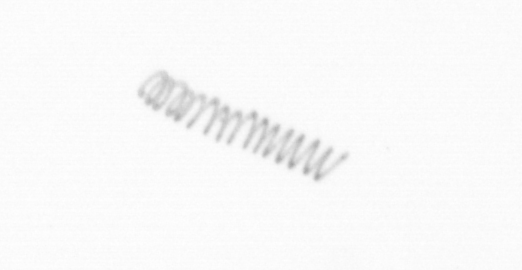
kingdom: Chromista
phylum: Ochrophyta
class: Bacillariophyceae
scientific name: Bacillariophyceae
